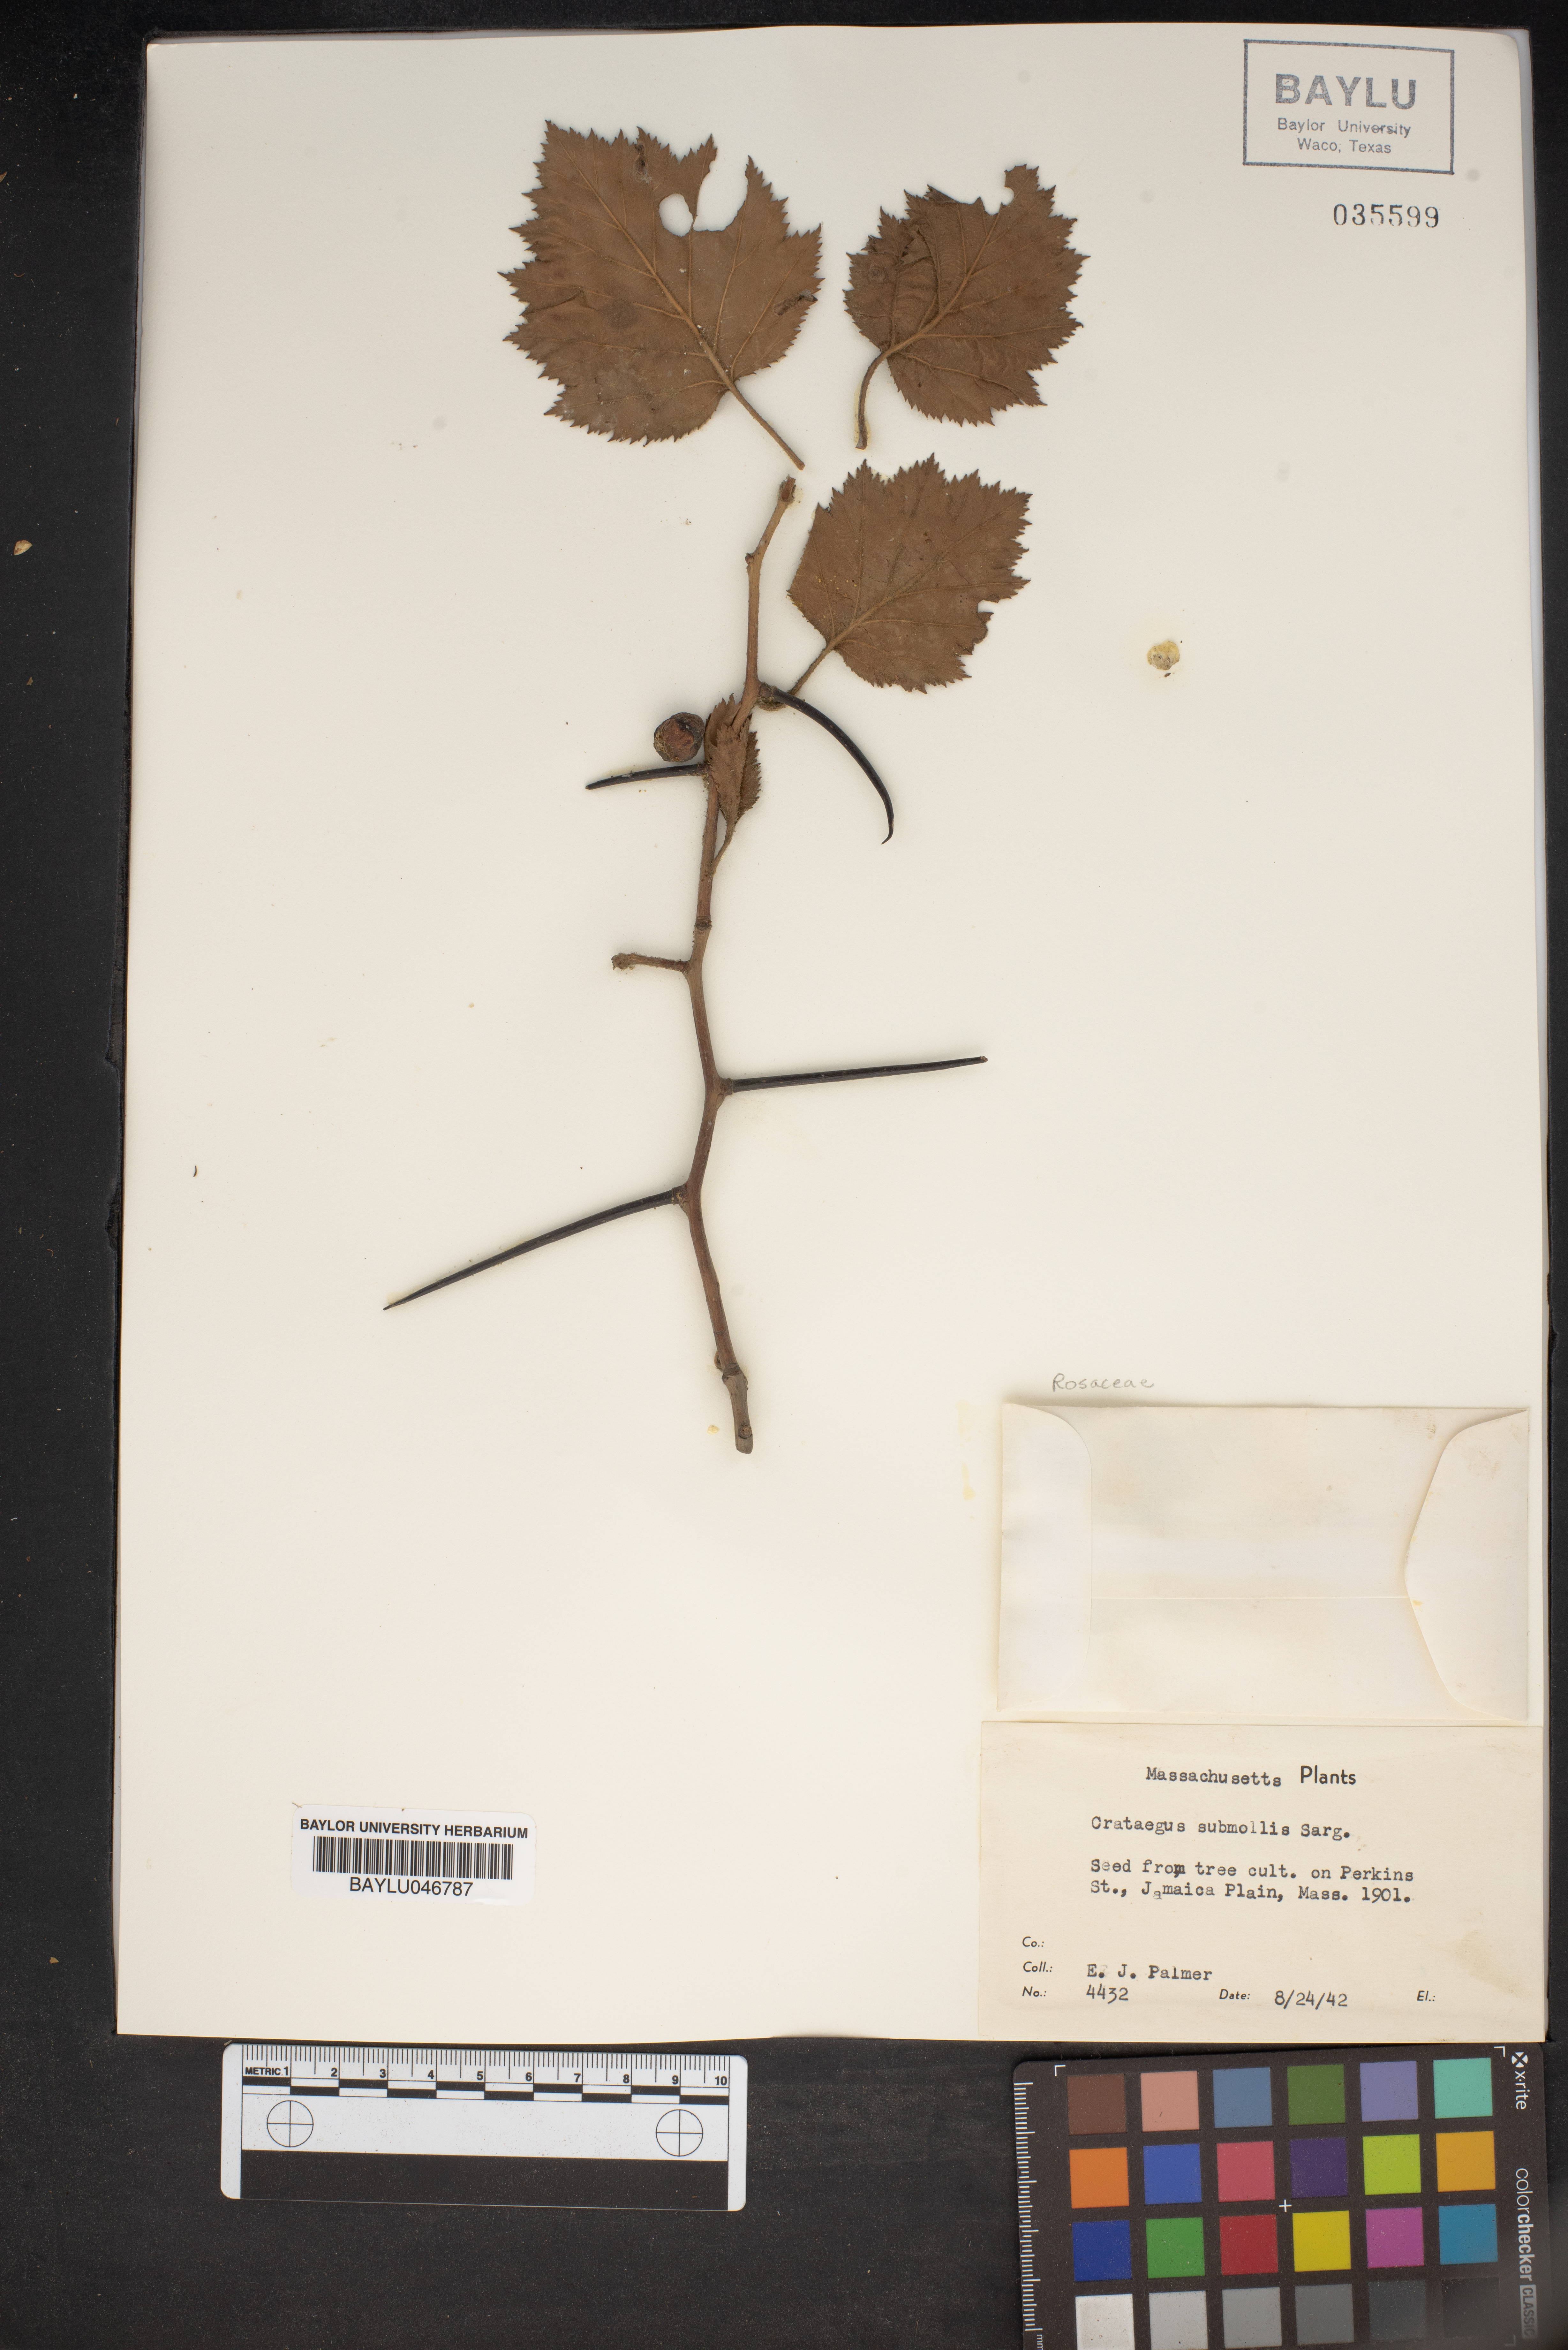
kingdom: Plantae
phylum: Tracheophyta
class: Magnoliopsida
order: Rosales
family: Rosaceae
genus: Crataegus
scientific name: Crataegus submollis
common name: Hairy cockspurthorn
